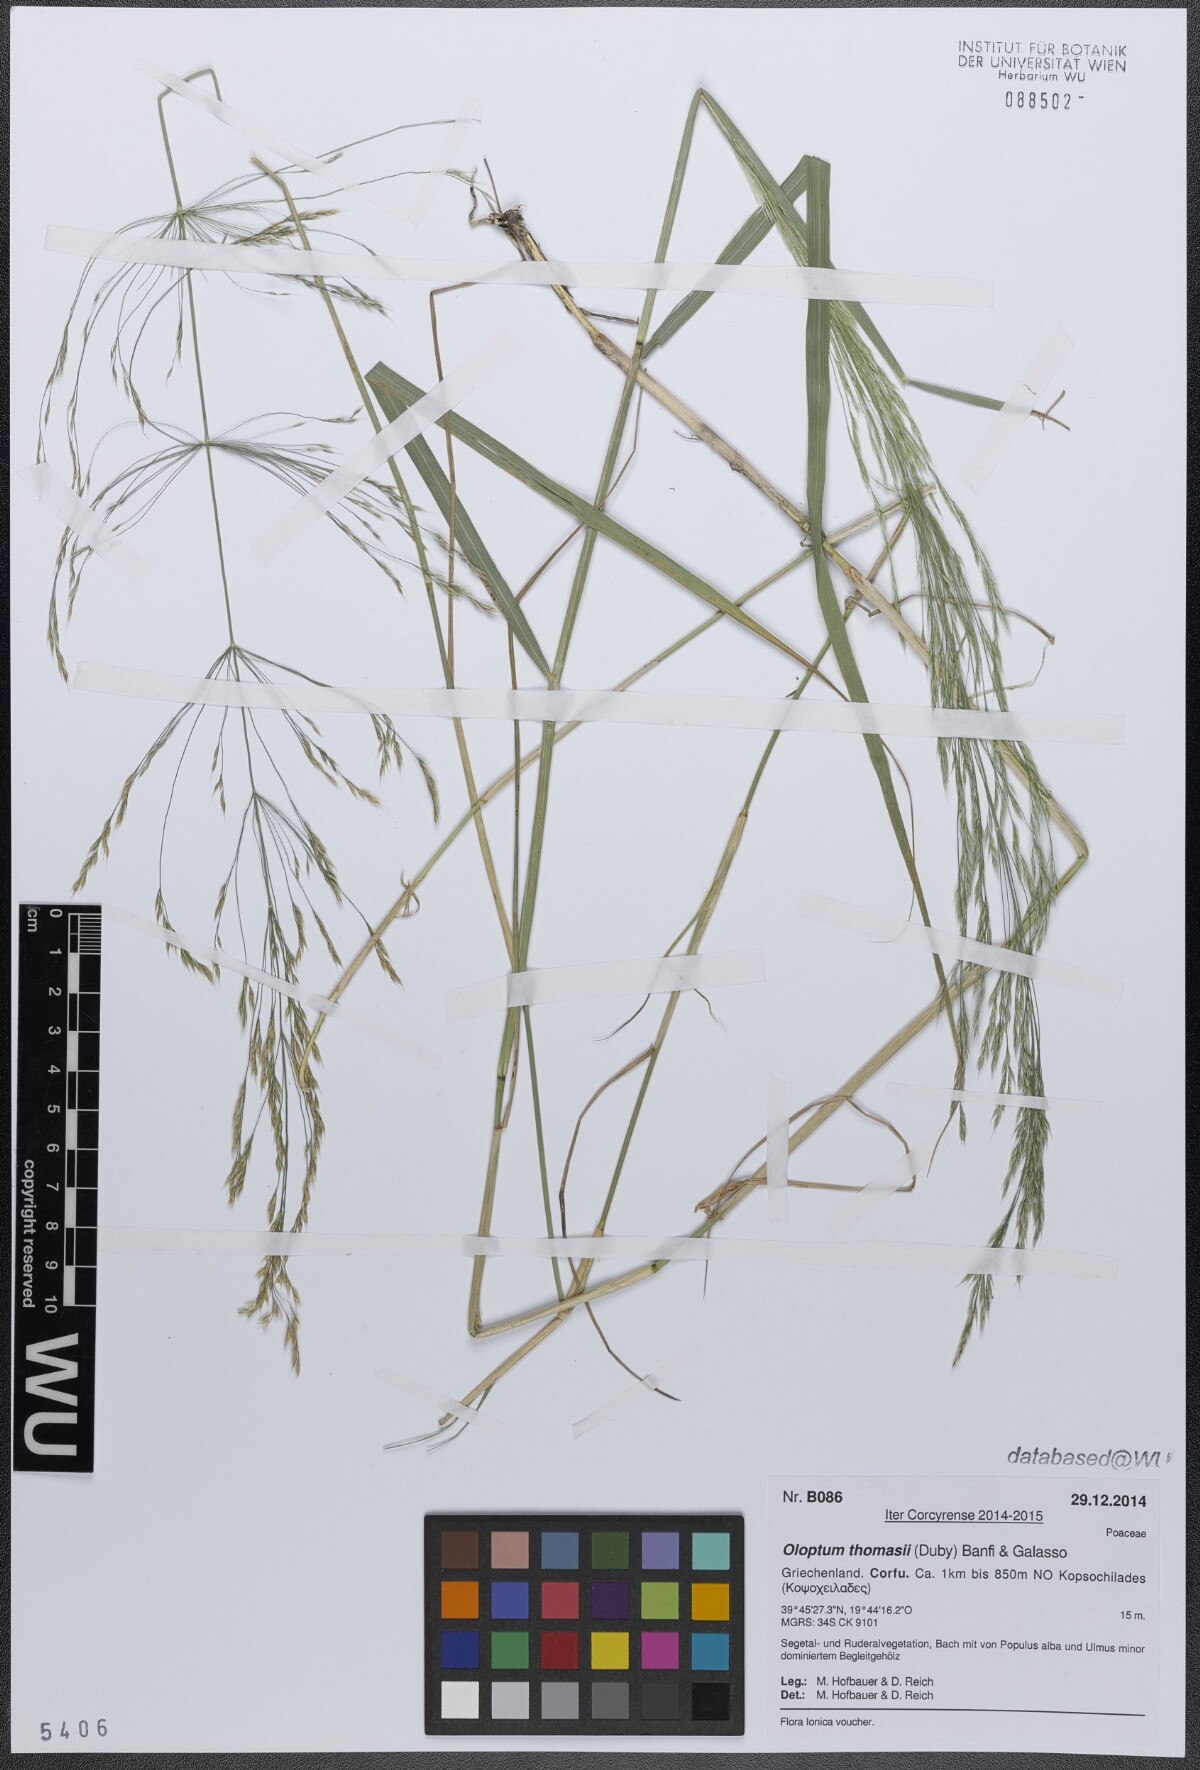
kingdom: Plantae
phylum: Tracheophyta
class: Liliopsida
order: Poales
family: Poaceae
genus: Oloptum
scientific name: Oloptum thomasii
